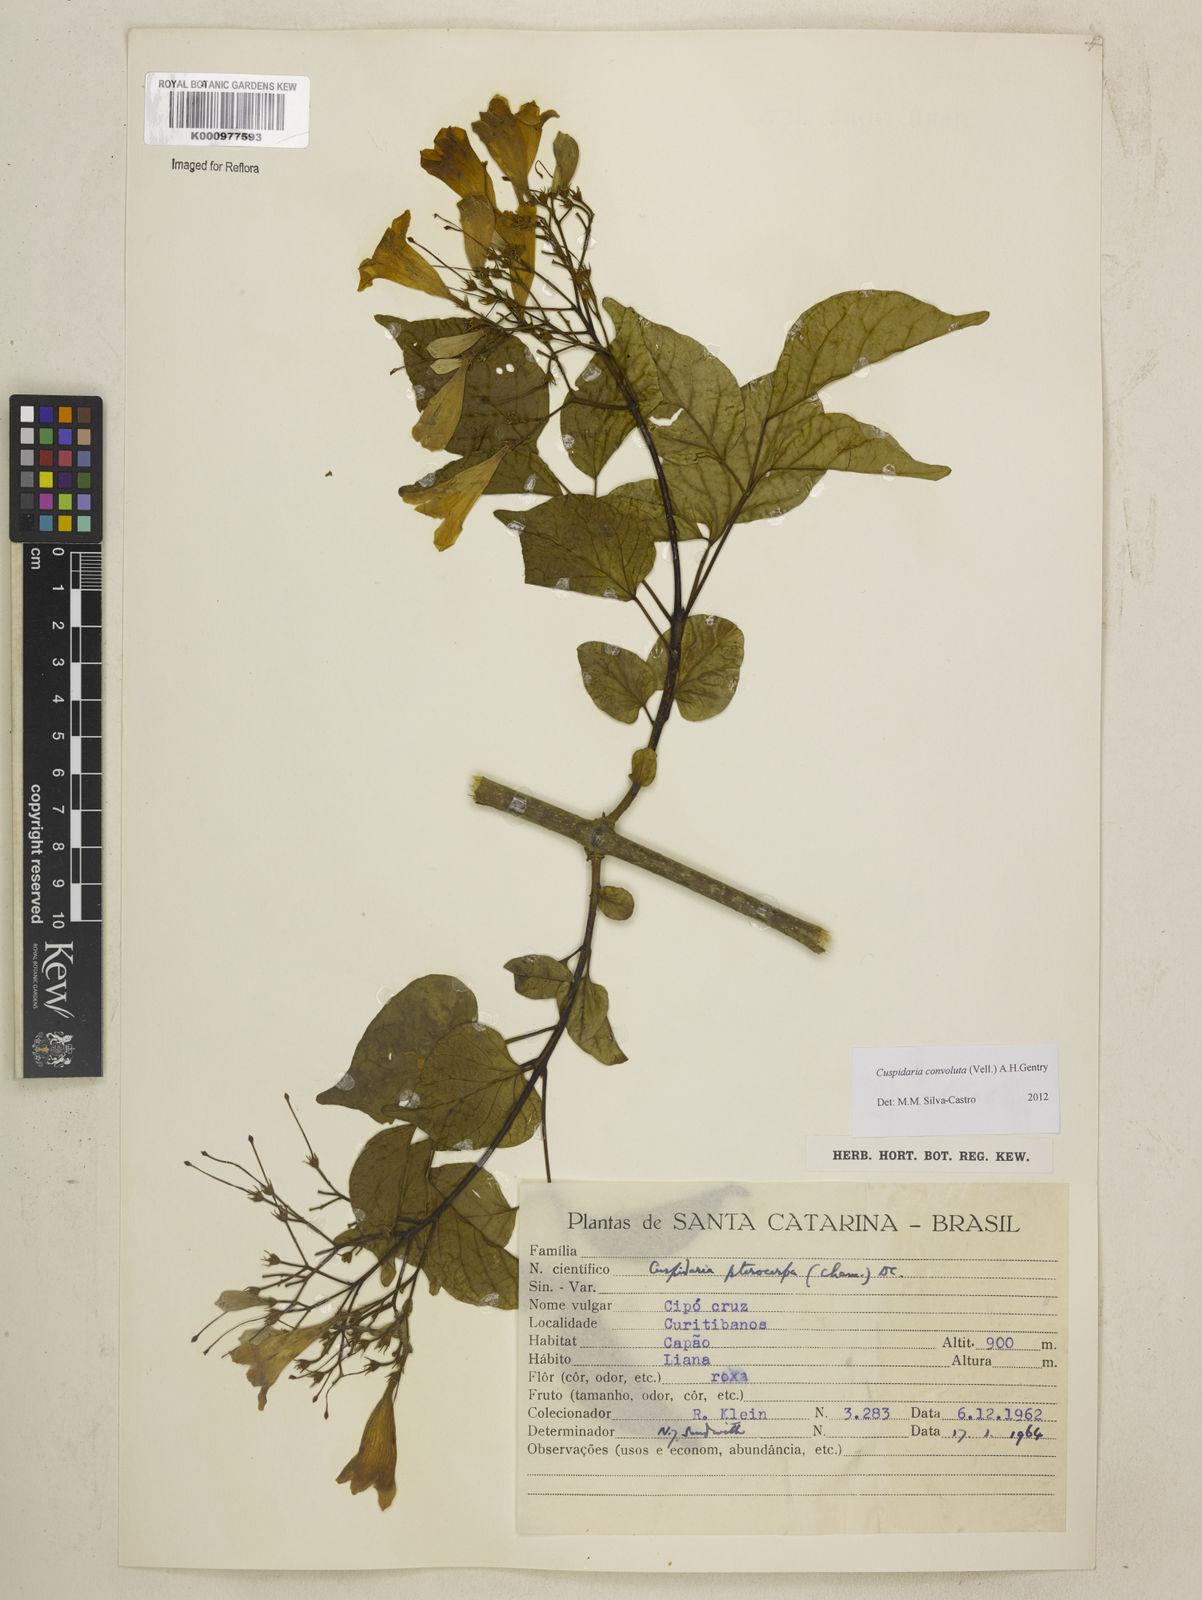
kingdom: Plantae
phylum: Tracheophyta
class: Magnoliopsida
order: Lamiales
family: Bignoniaceae
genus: Cuspidaria
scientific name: Cuspidaria convoluta
